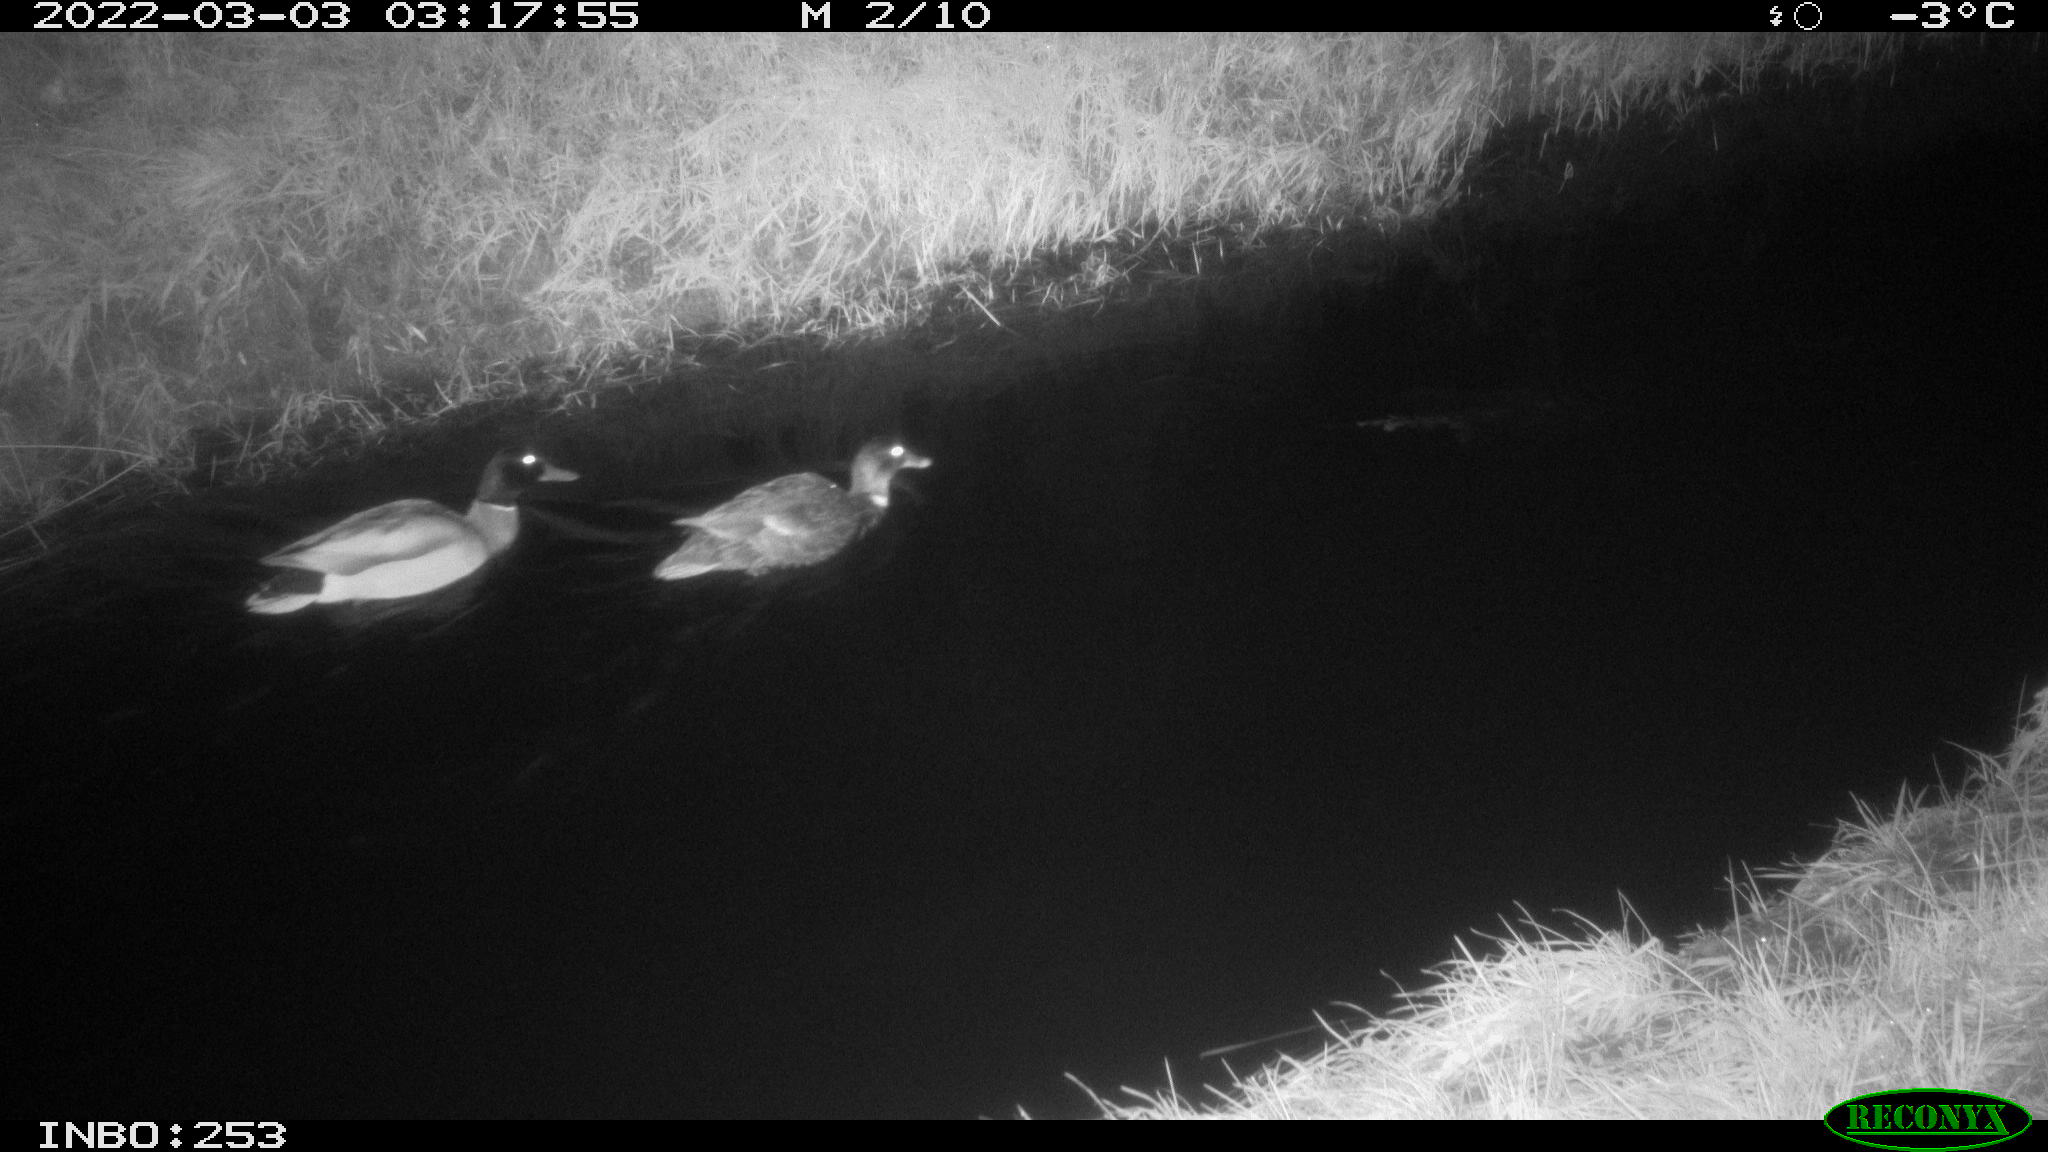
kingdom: Animalia
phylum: Chordata
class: Aves
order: Anseriformes
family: Anatidae
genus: Anas
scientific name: Anas platyrhynchos
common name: Mallard
